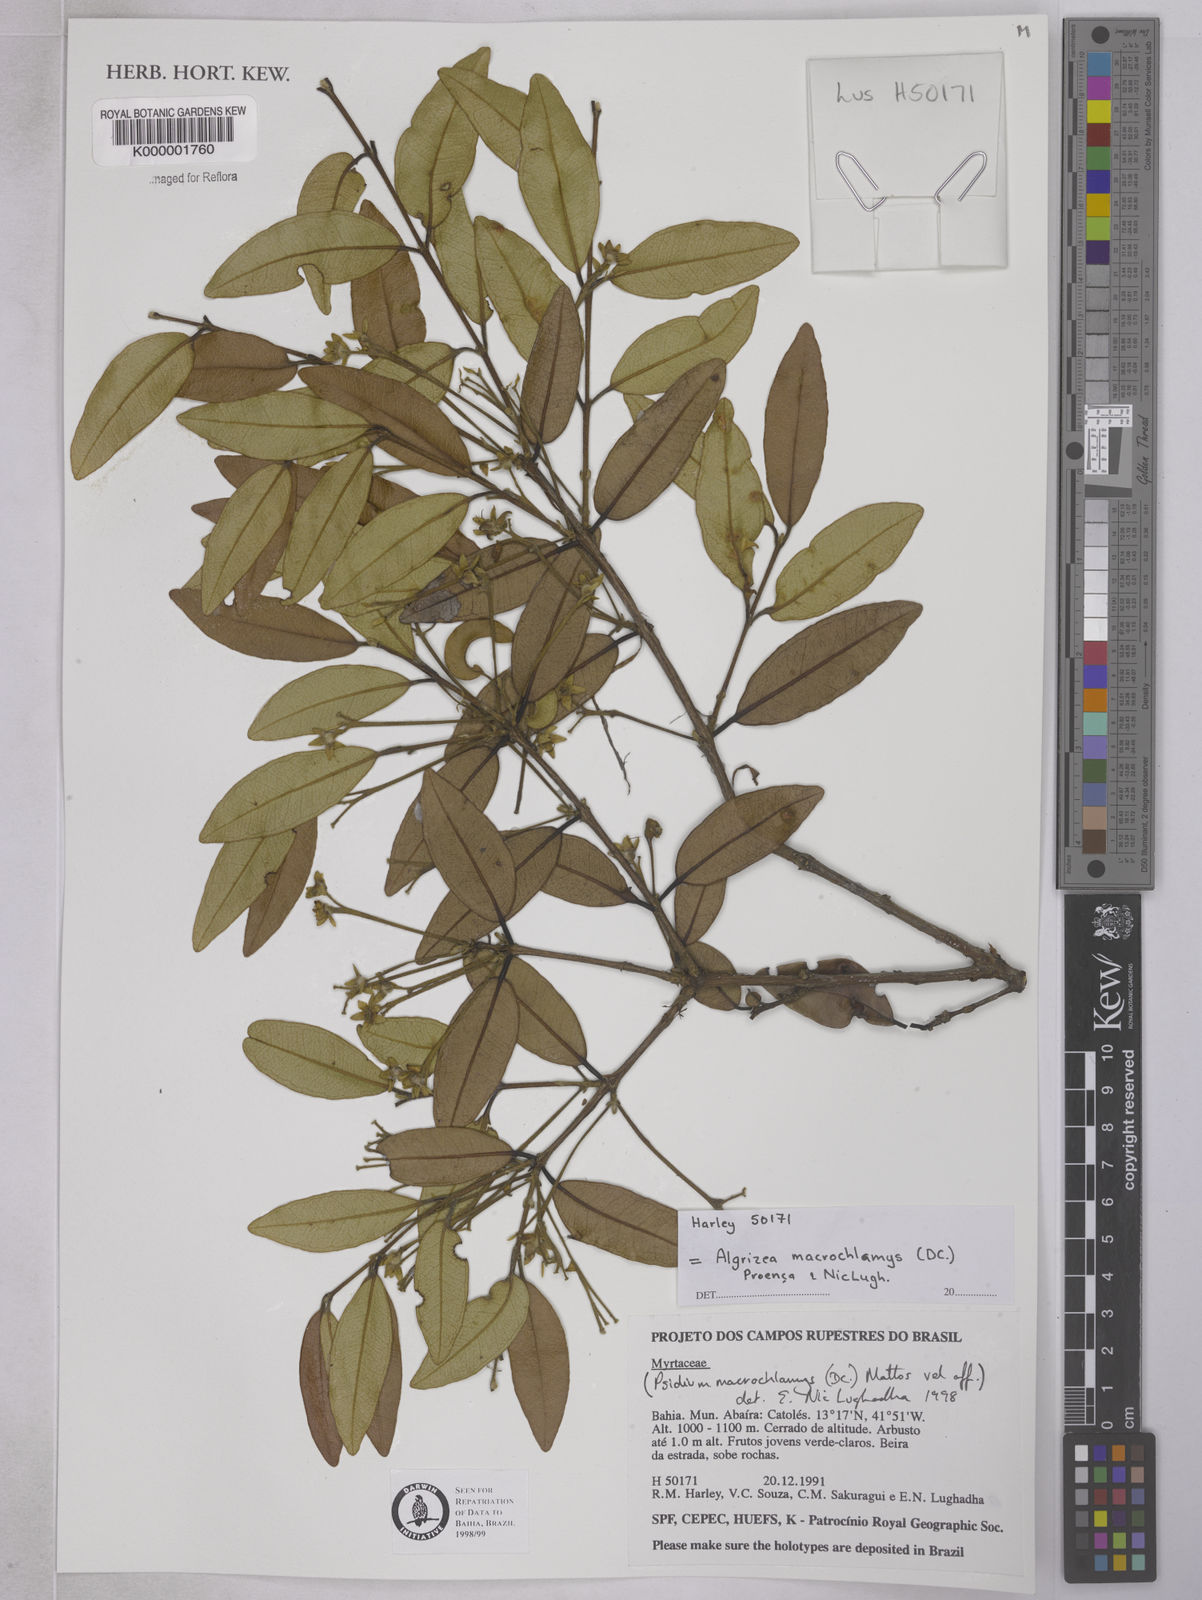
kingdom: Plantae
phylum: Tracheophyta
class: Magnoliopsida
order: Myrtales
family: Myrtaceae
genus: Algrizea
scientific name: Algrizea macrochlamys
